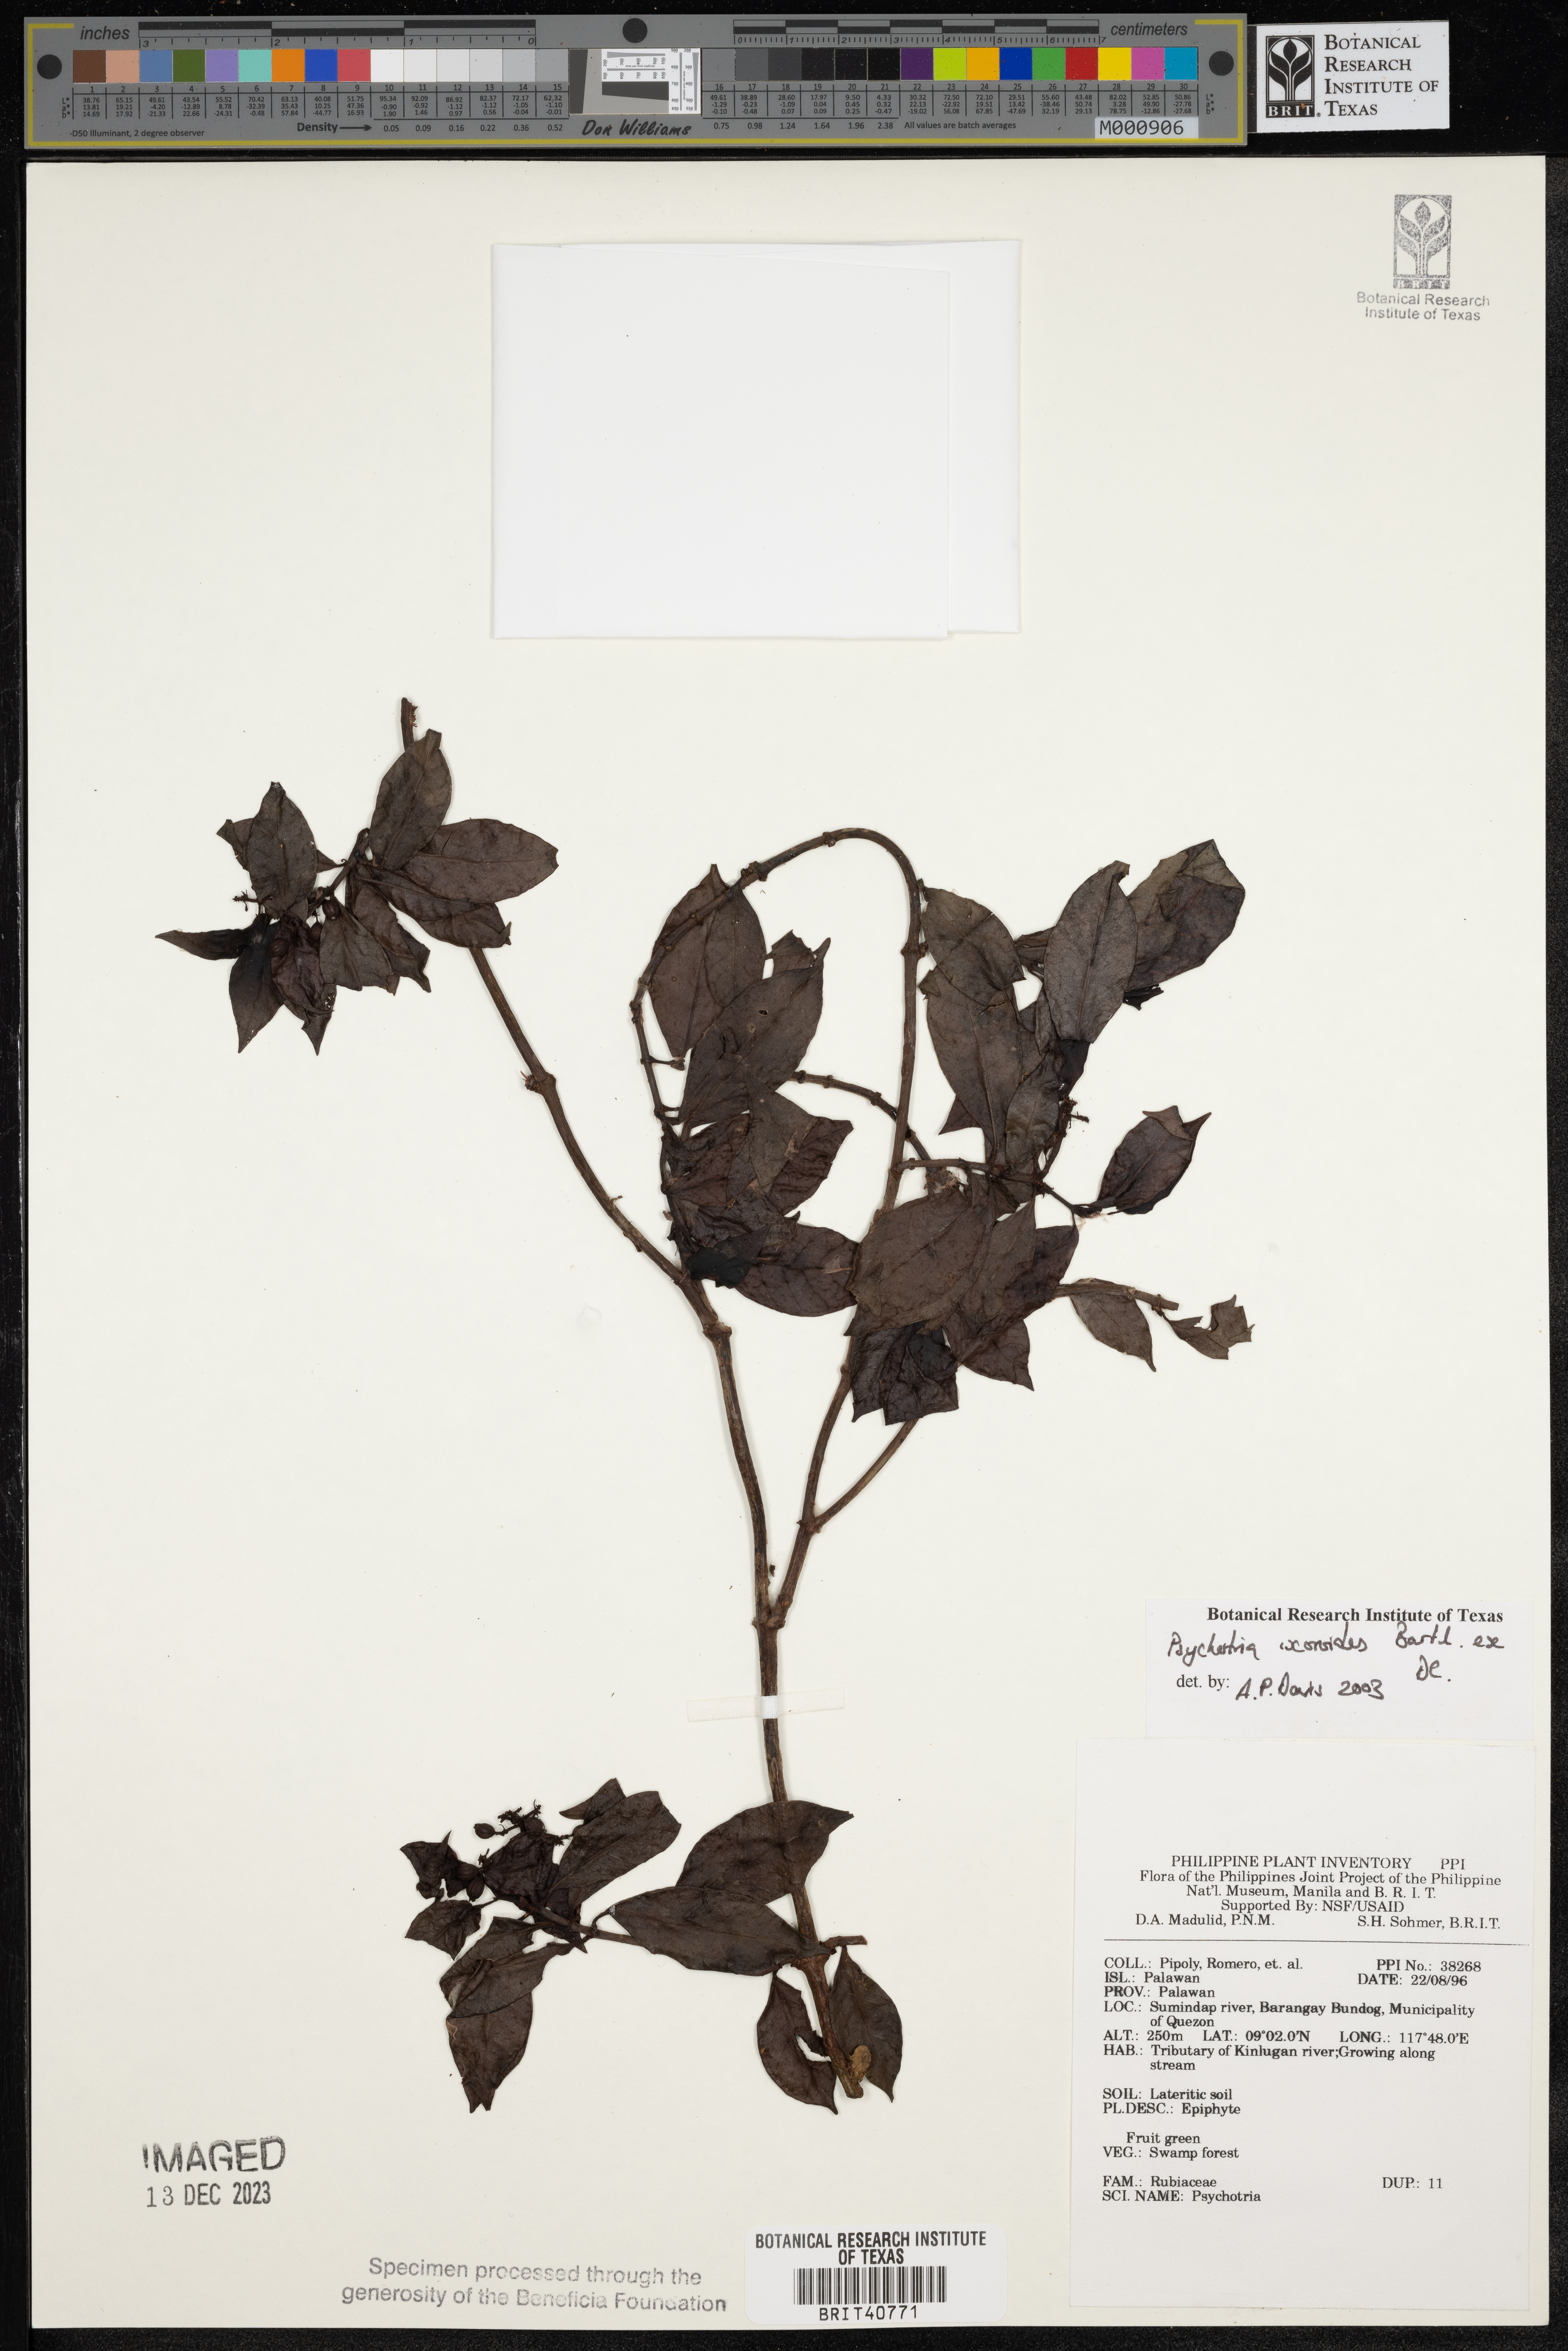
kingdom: Plantae
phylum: Tracheophyta
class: Magnoliopsida
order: Gentianales
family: Rubiaceae
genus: Psychotria
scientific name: Psychotria ixoroides
